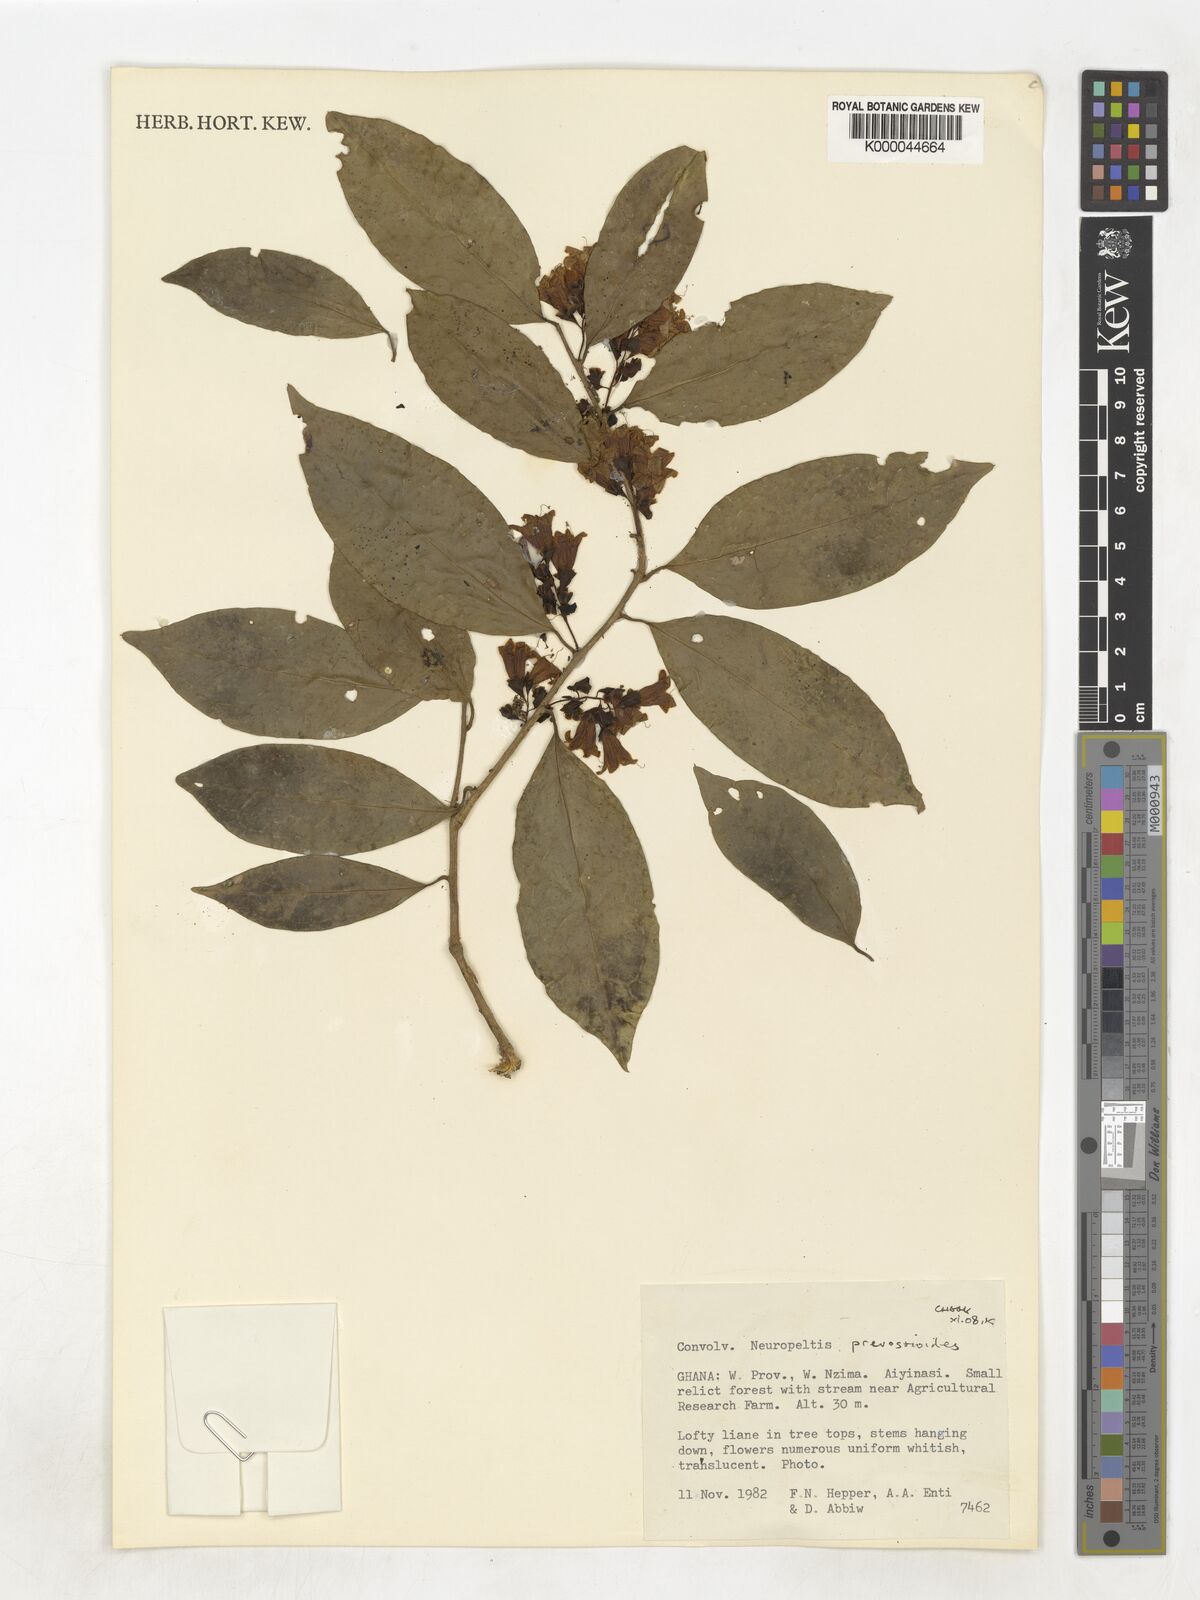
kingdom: Plantae
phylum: Tracheophyta
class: Magnoliopsida
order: Solanales
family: Convolvulaceae
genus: Neuropeltis
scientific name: Neuropeltis prevosteoides
